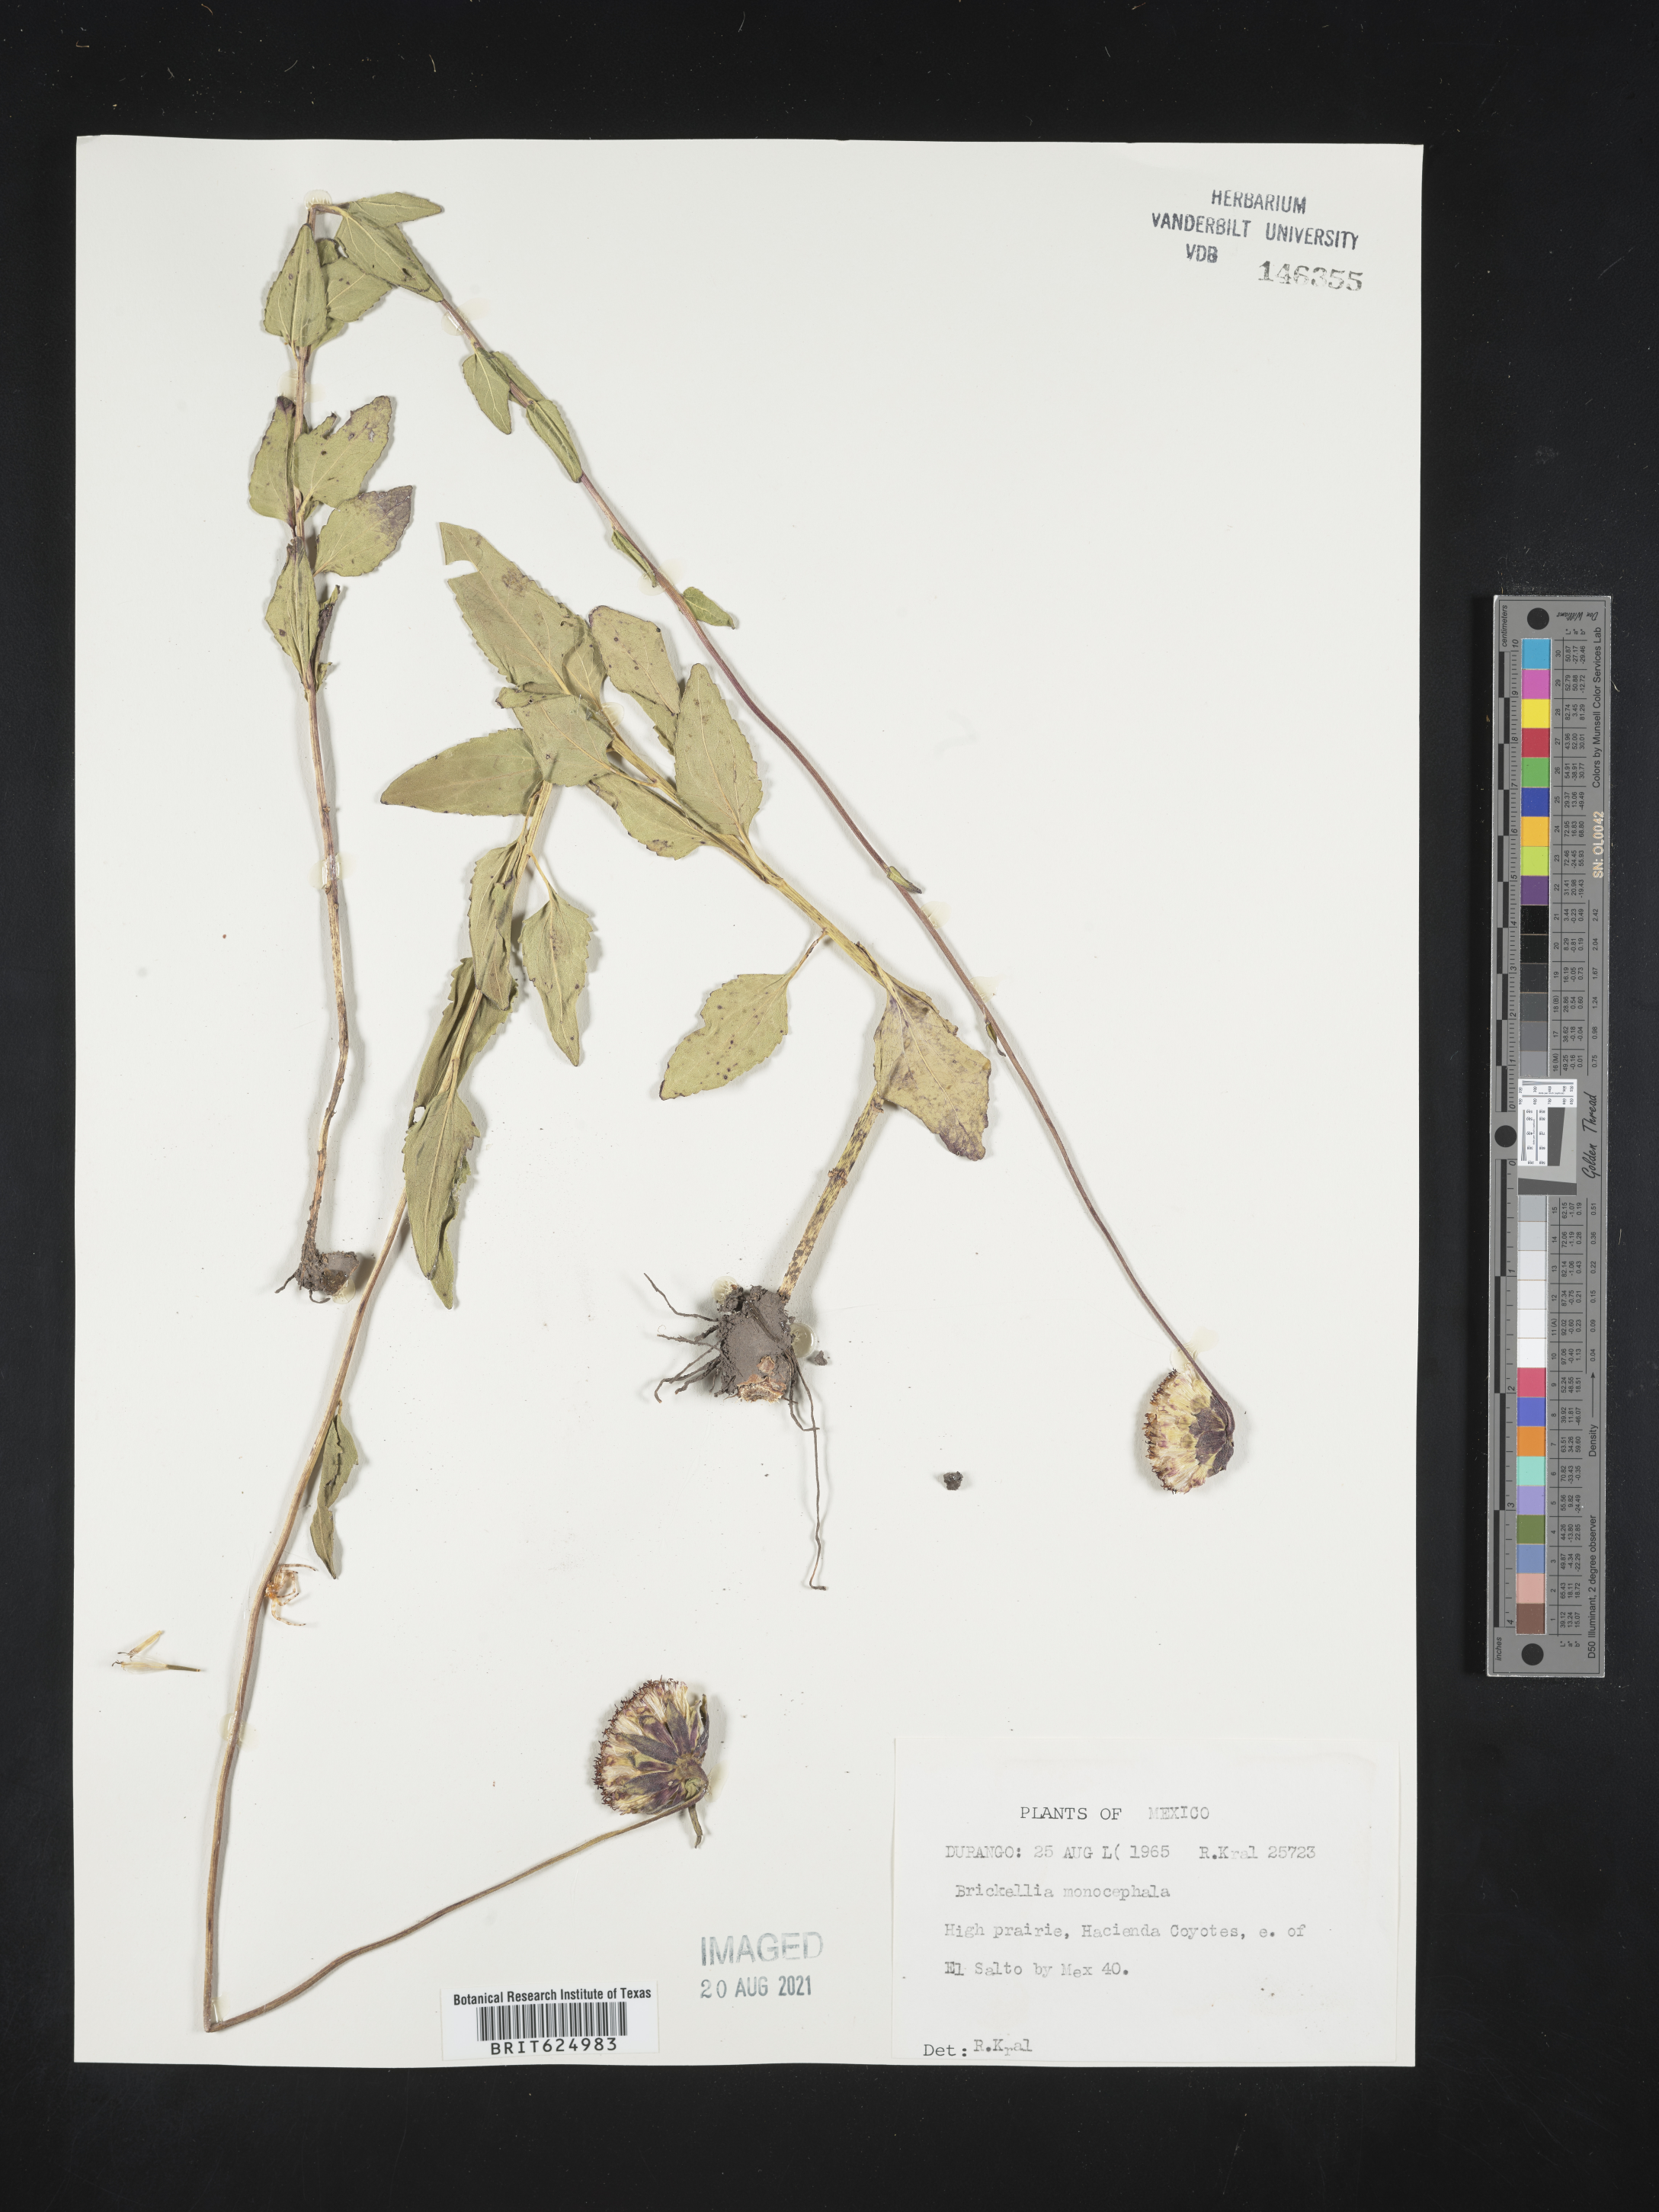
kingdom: Plantae
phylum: Tracheophyta
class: Magnoliopsida
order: Asterales
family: Asteraceae
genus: Brickellia
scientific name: Brickellia
